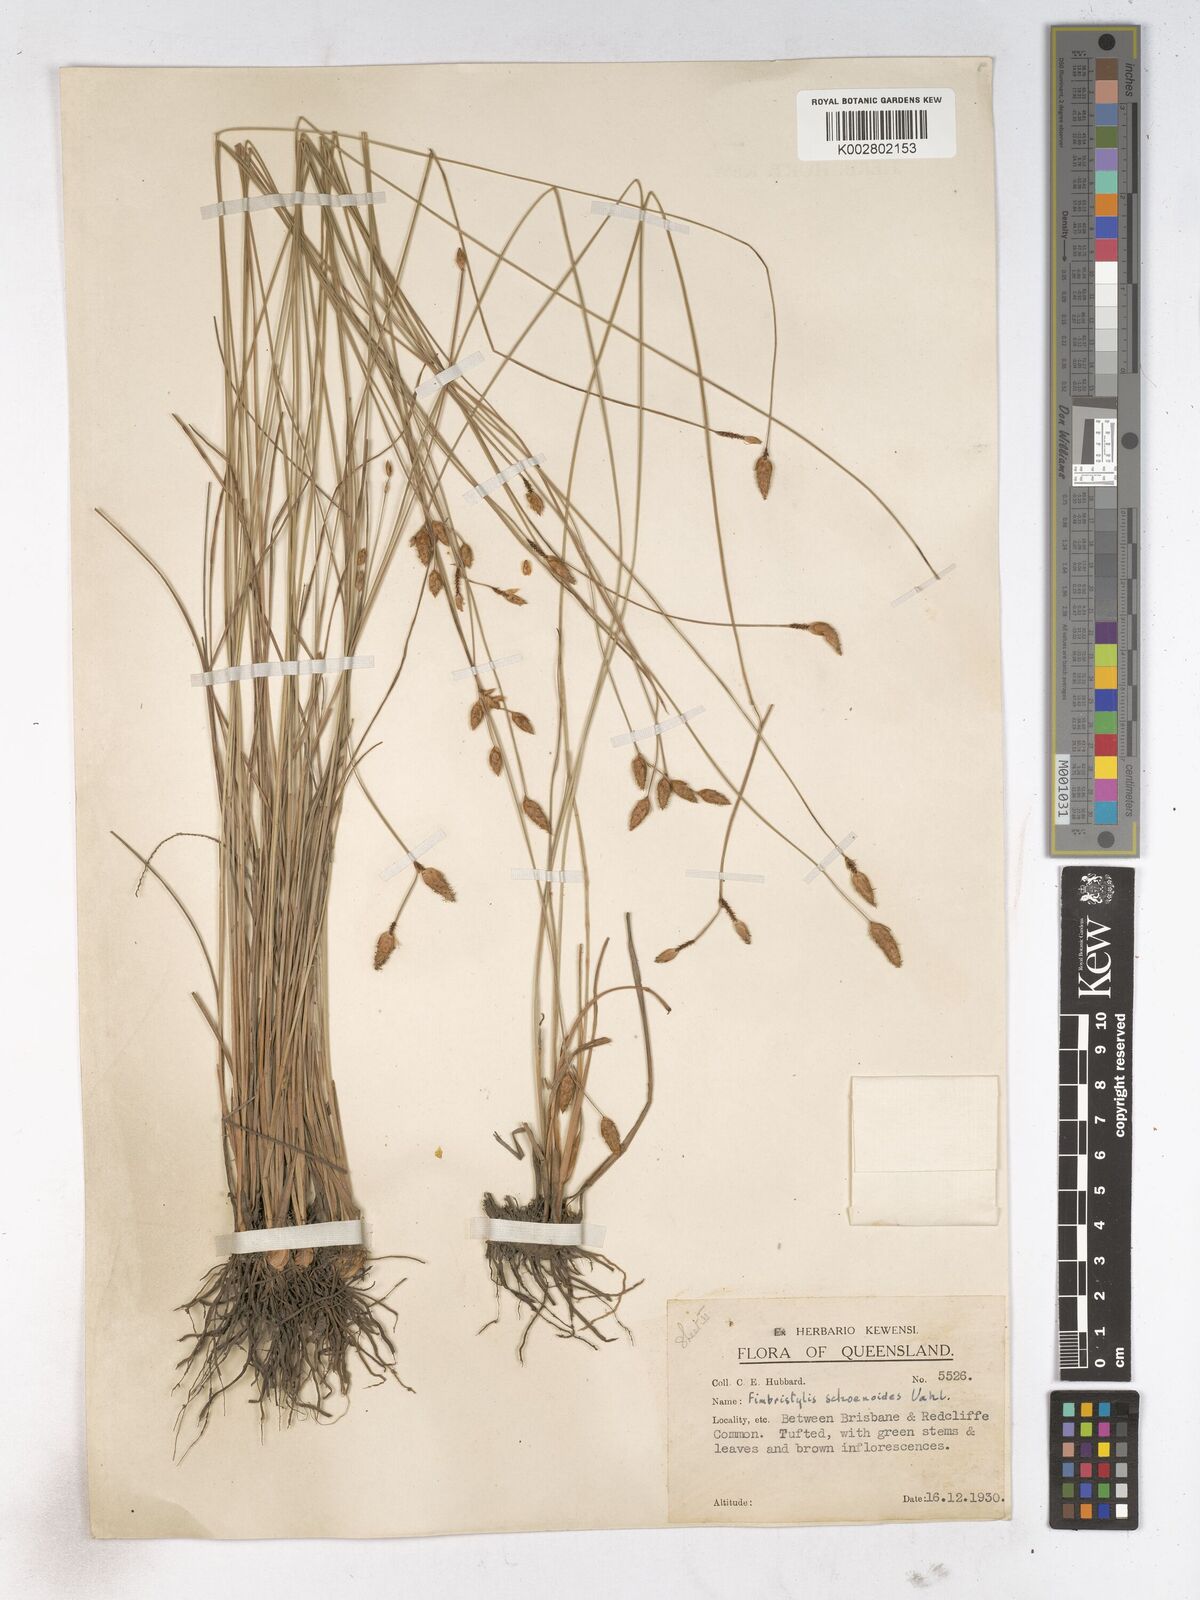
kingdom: Plantae
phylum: Tracheophyta
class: Liliopsida
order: Poales
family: Cyperaceae
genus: Fimbristylis
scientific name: Fimbristylis schoenoides
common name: Ditch fimbry
